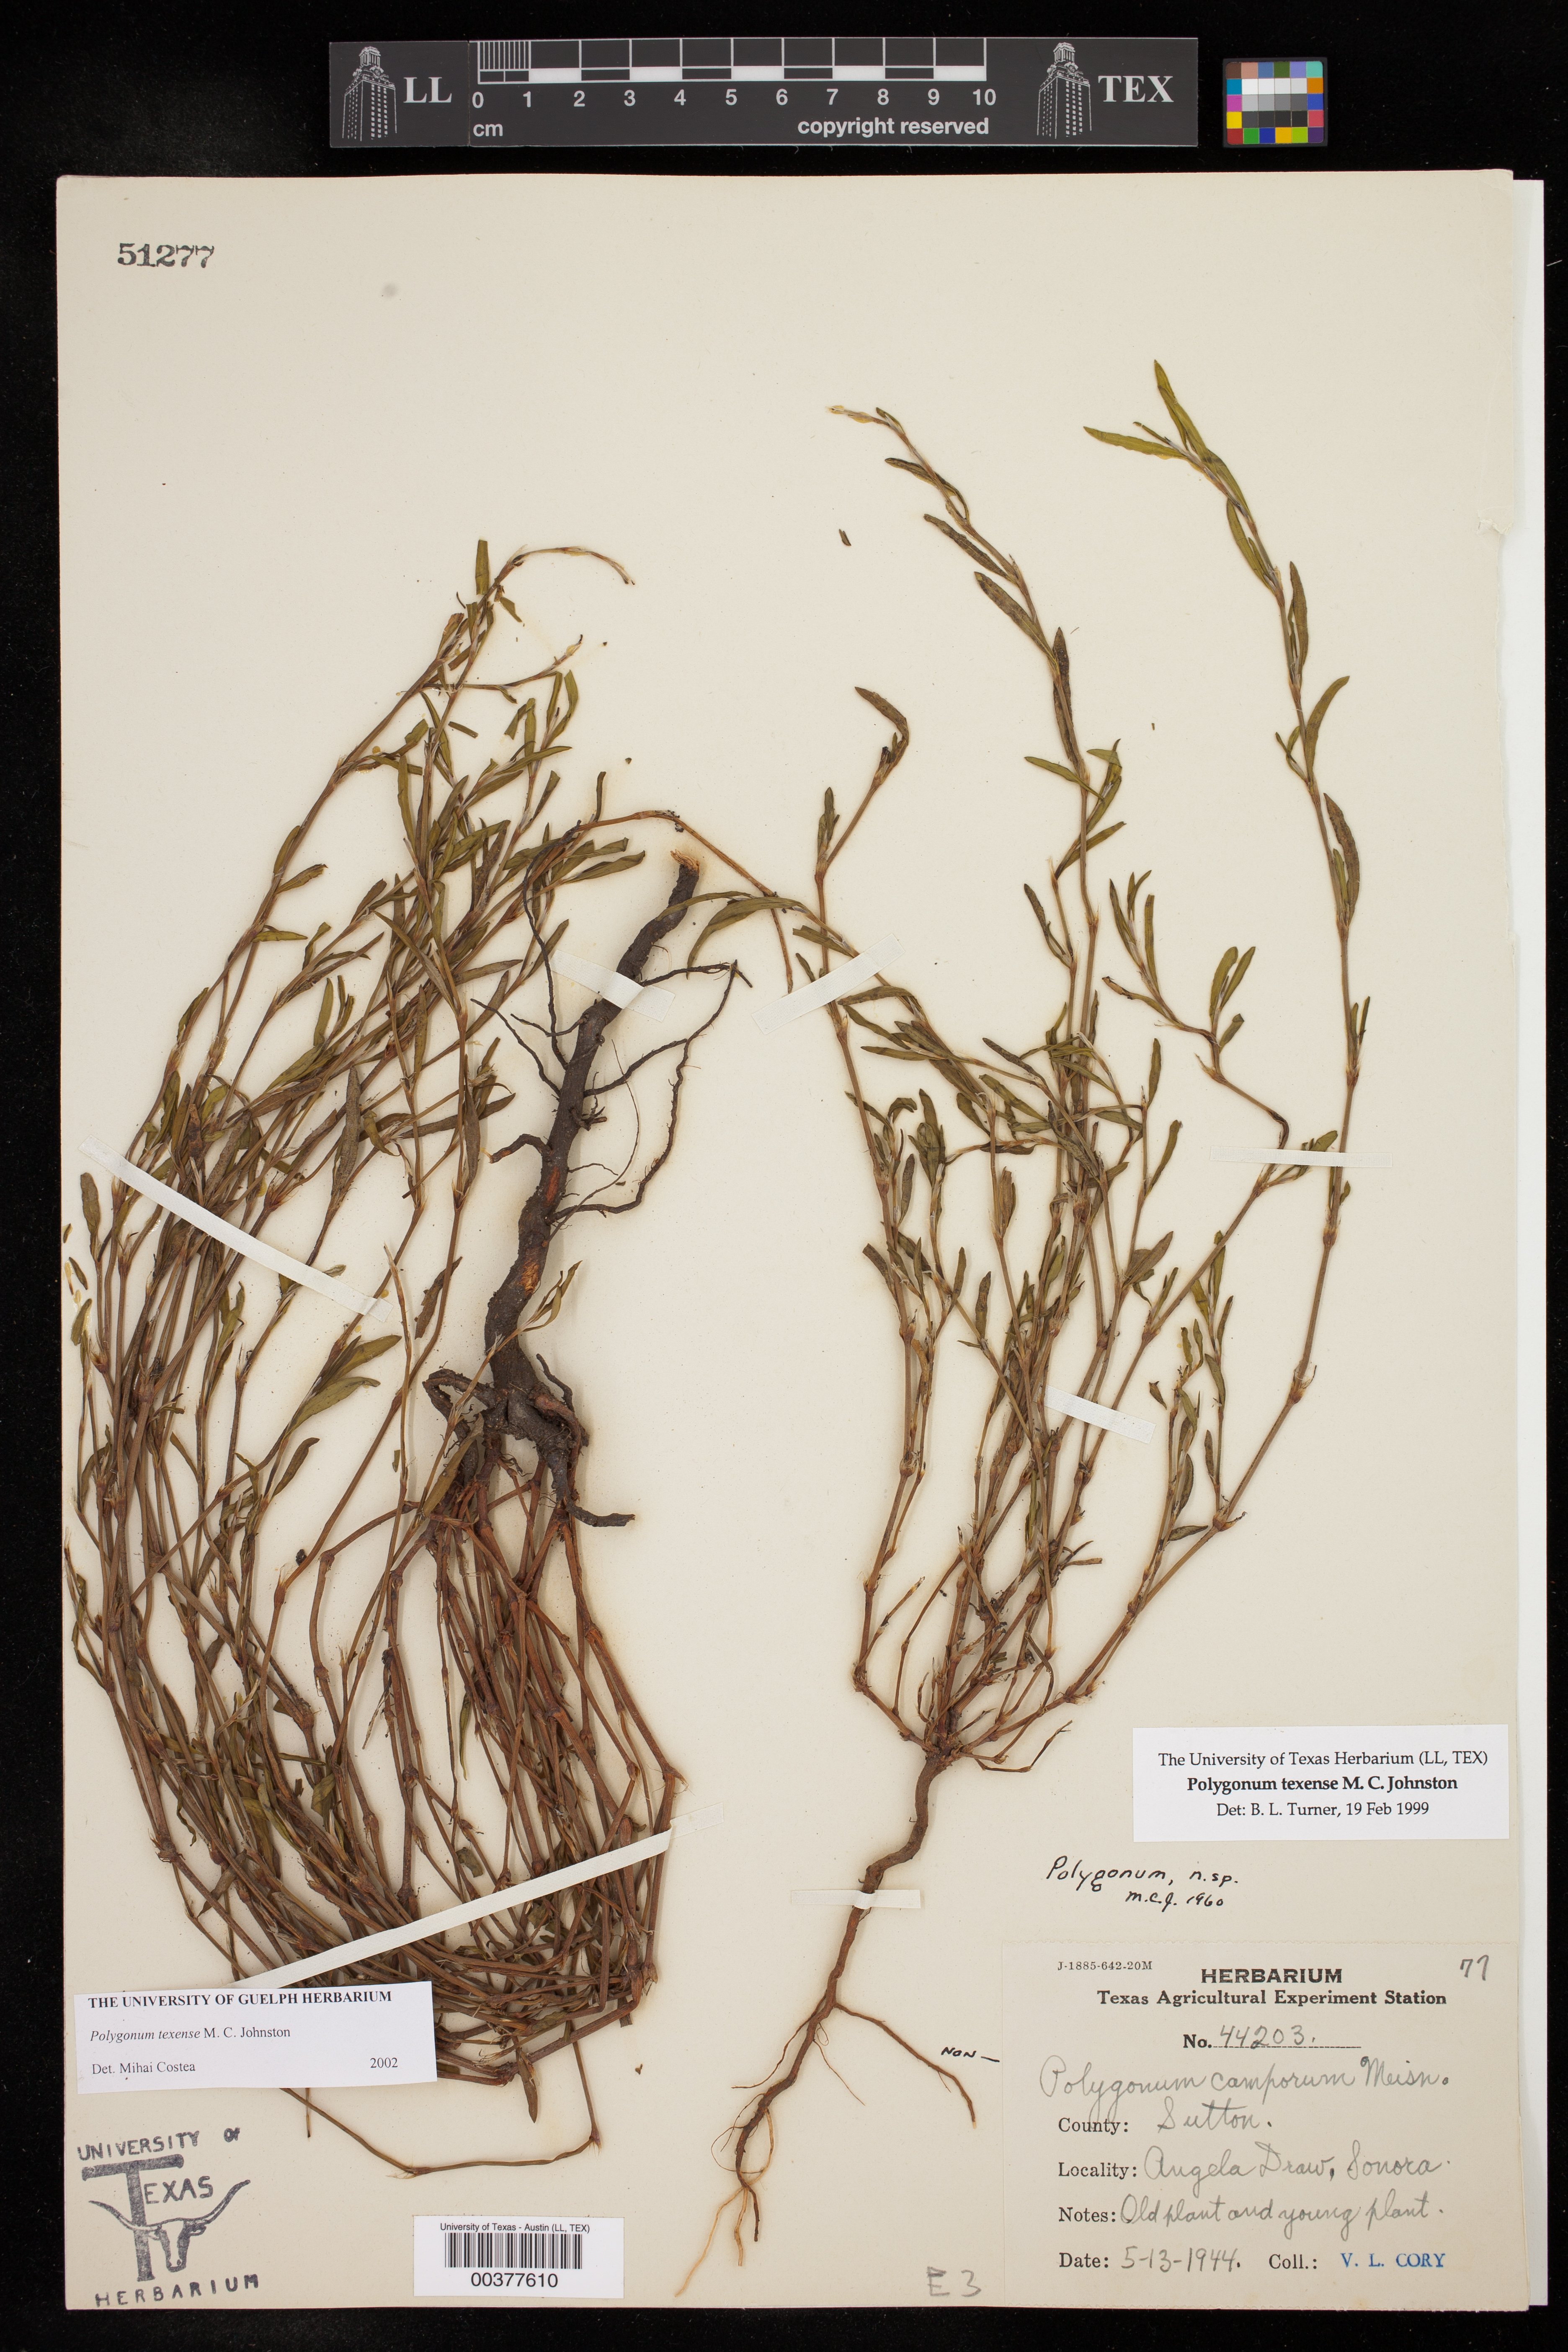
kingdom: Plantae
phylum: Tracheophyta
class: Magnoliopsida
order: Caryophyllales
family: Polygonaceae
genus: Polygonum
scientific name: Polygonum striatulum
